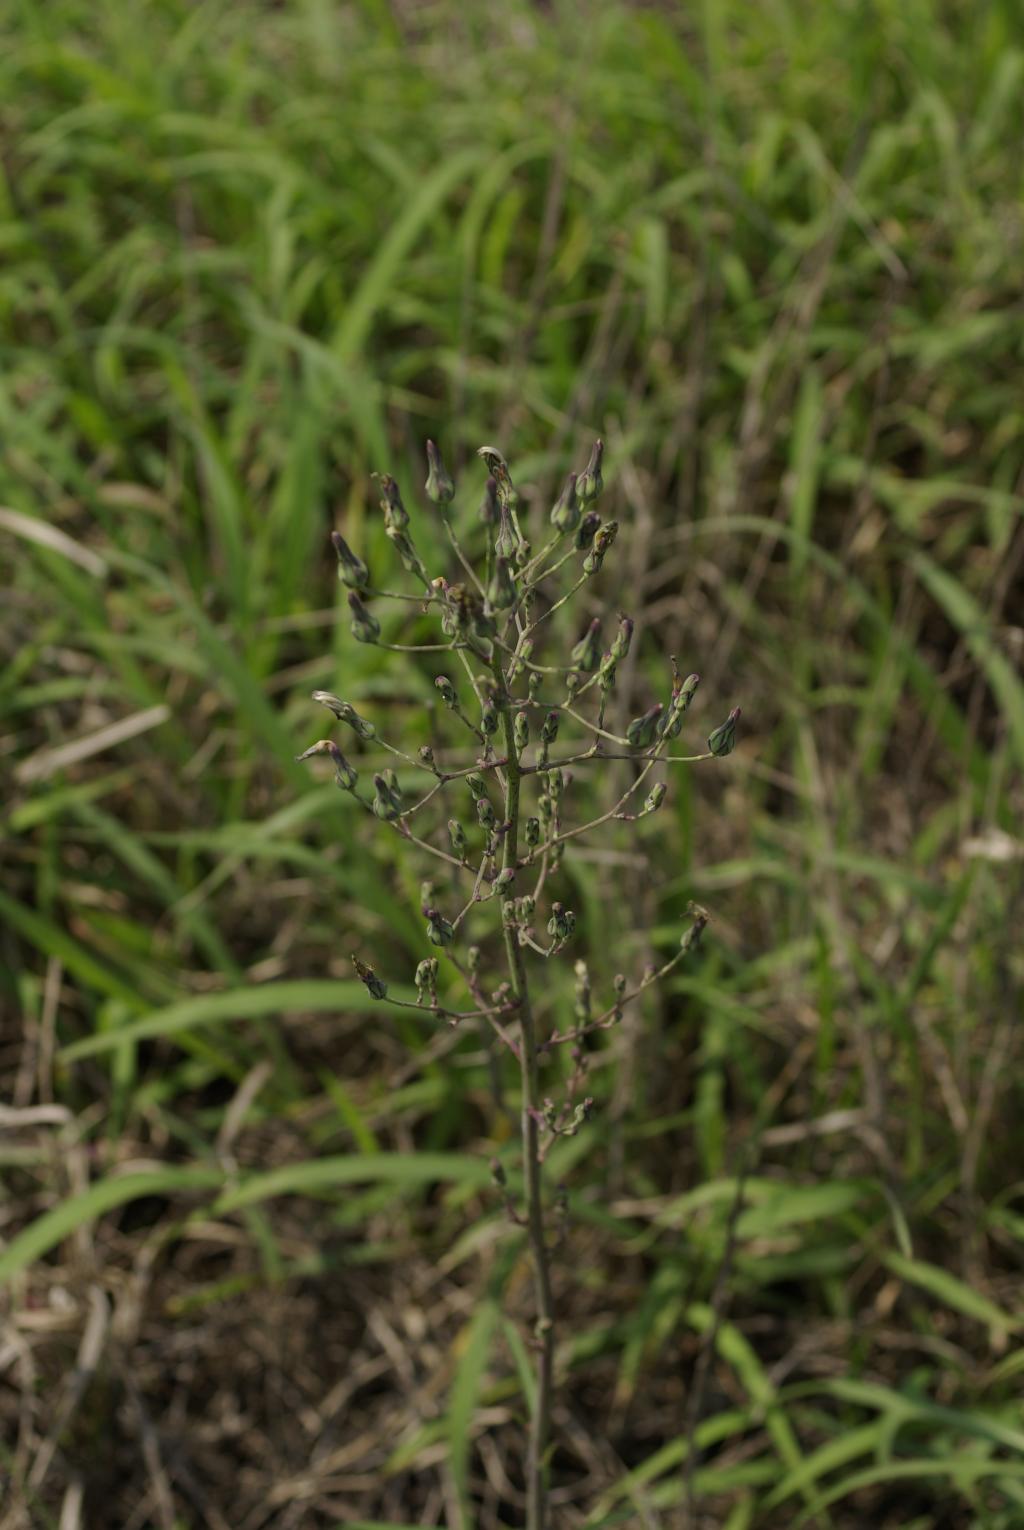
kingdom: Plantae
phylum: Tracheophyta
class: Magnoliopsida
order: Asterales
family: Asteraceae
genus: Lactuca
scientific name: Lactuca indica
